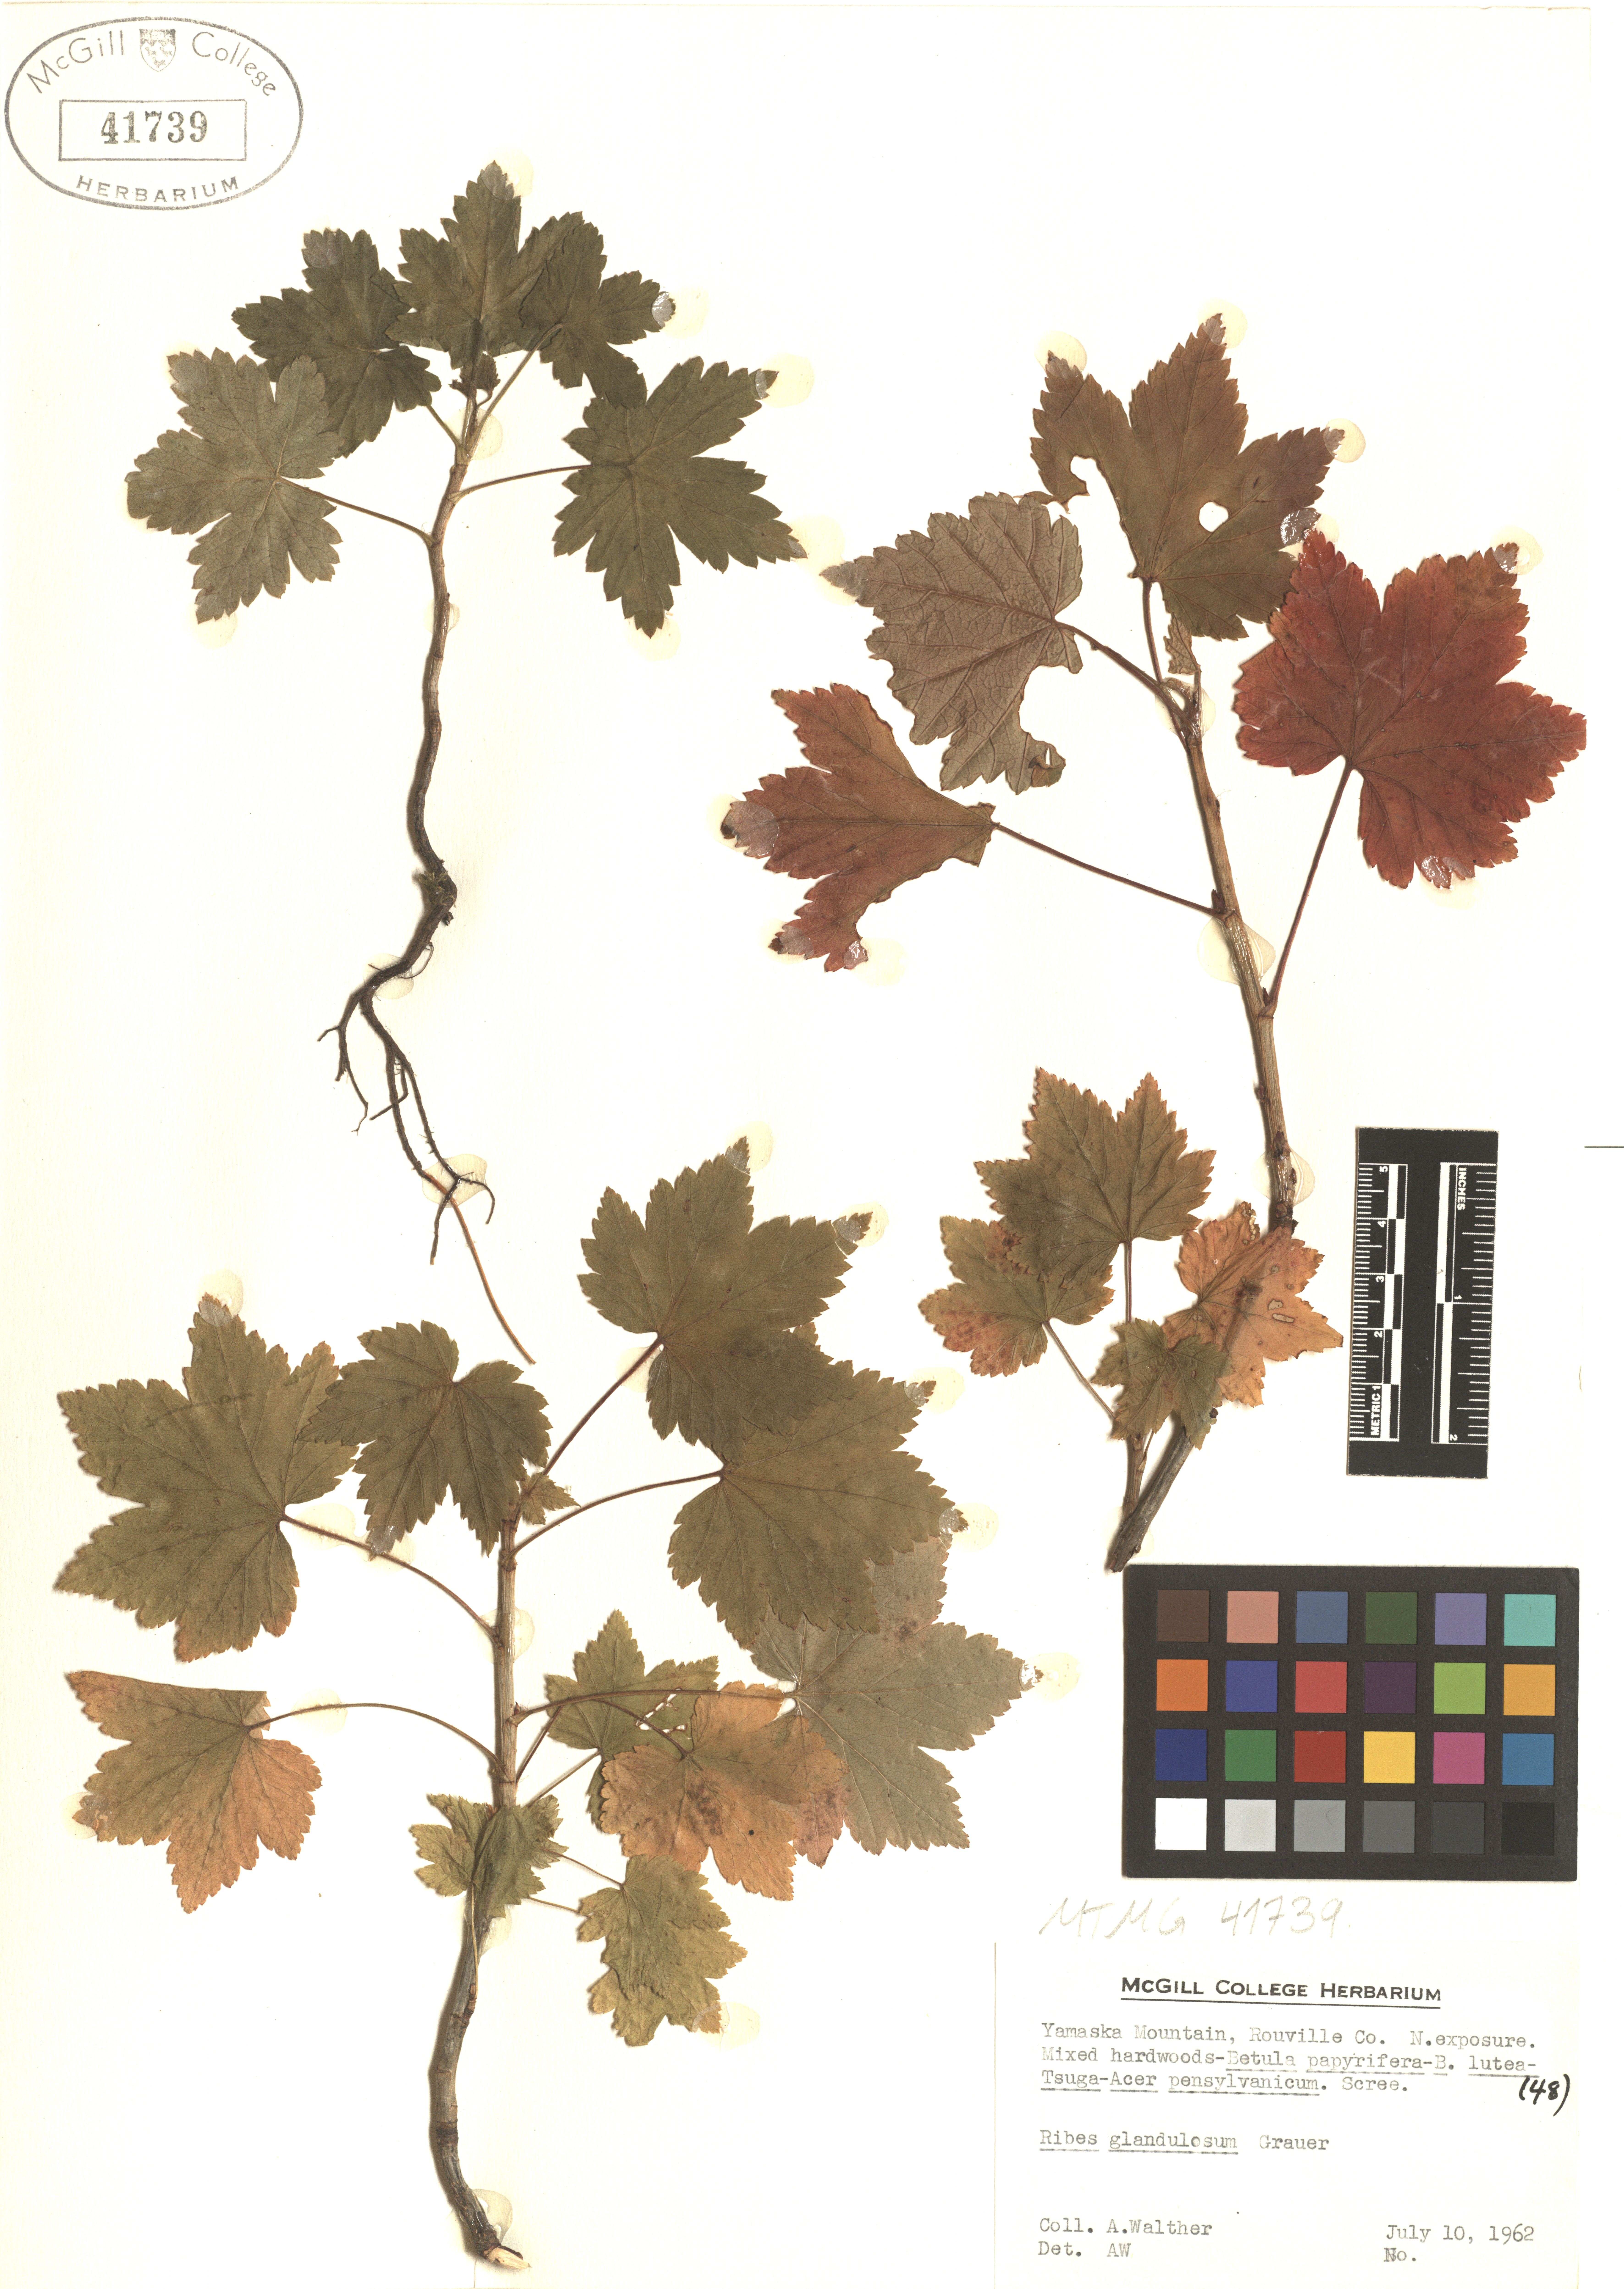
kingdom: Plantae
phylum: Tracheophyta
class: Magnoliopsida
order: Saxifragales
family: Grossulariaceae
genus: Ribes
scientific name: Ribes glandulosum
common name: Skunk currant
